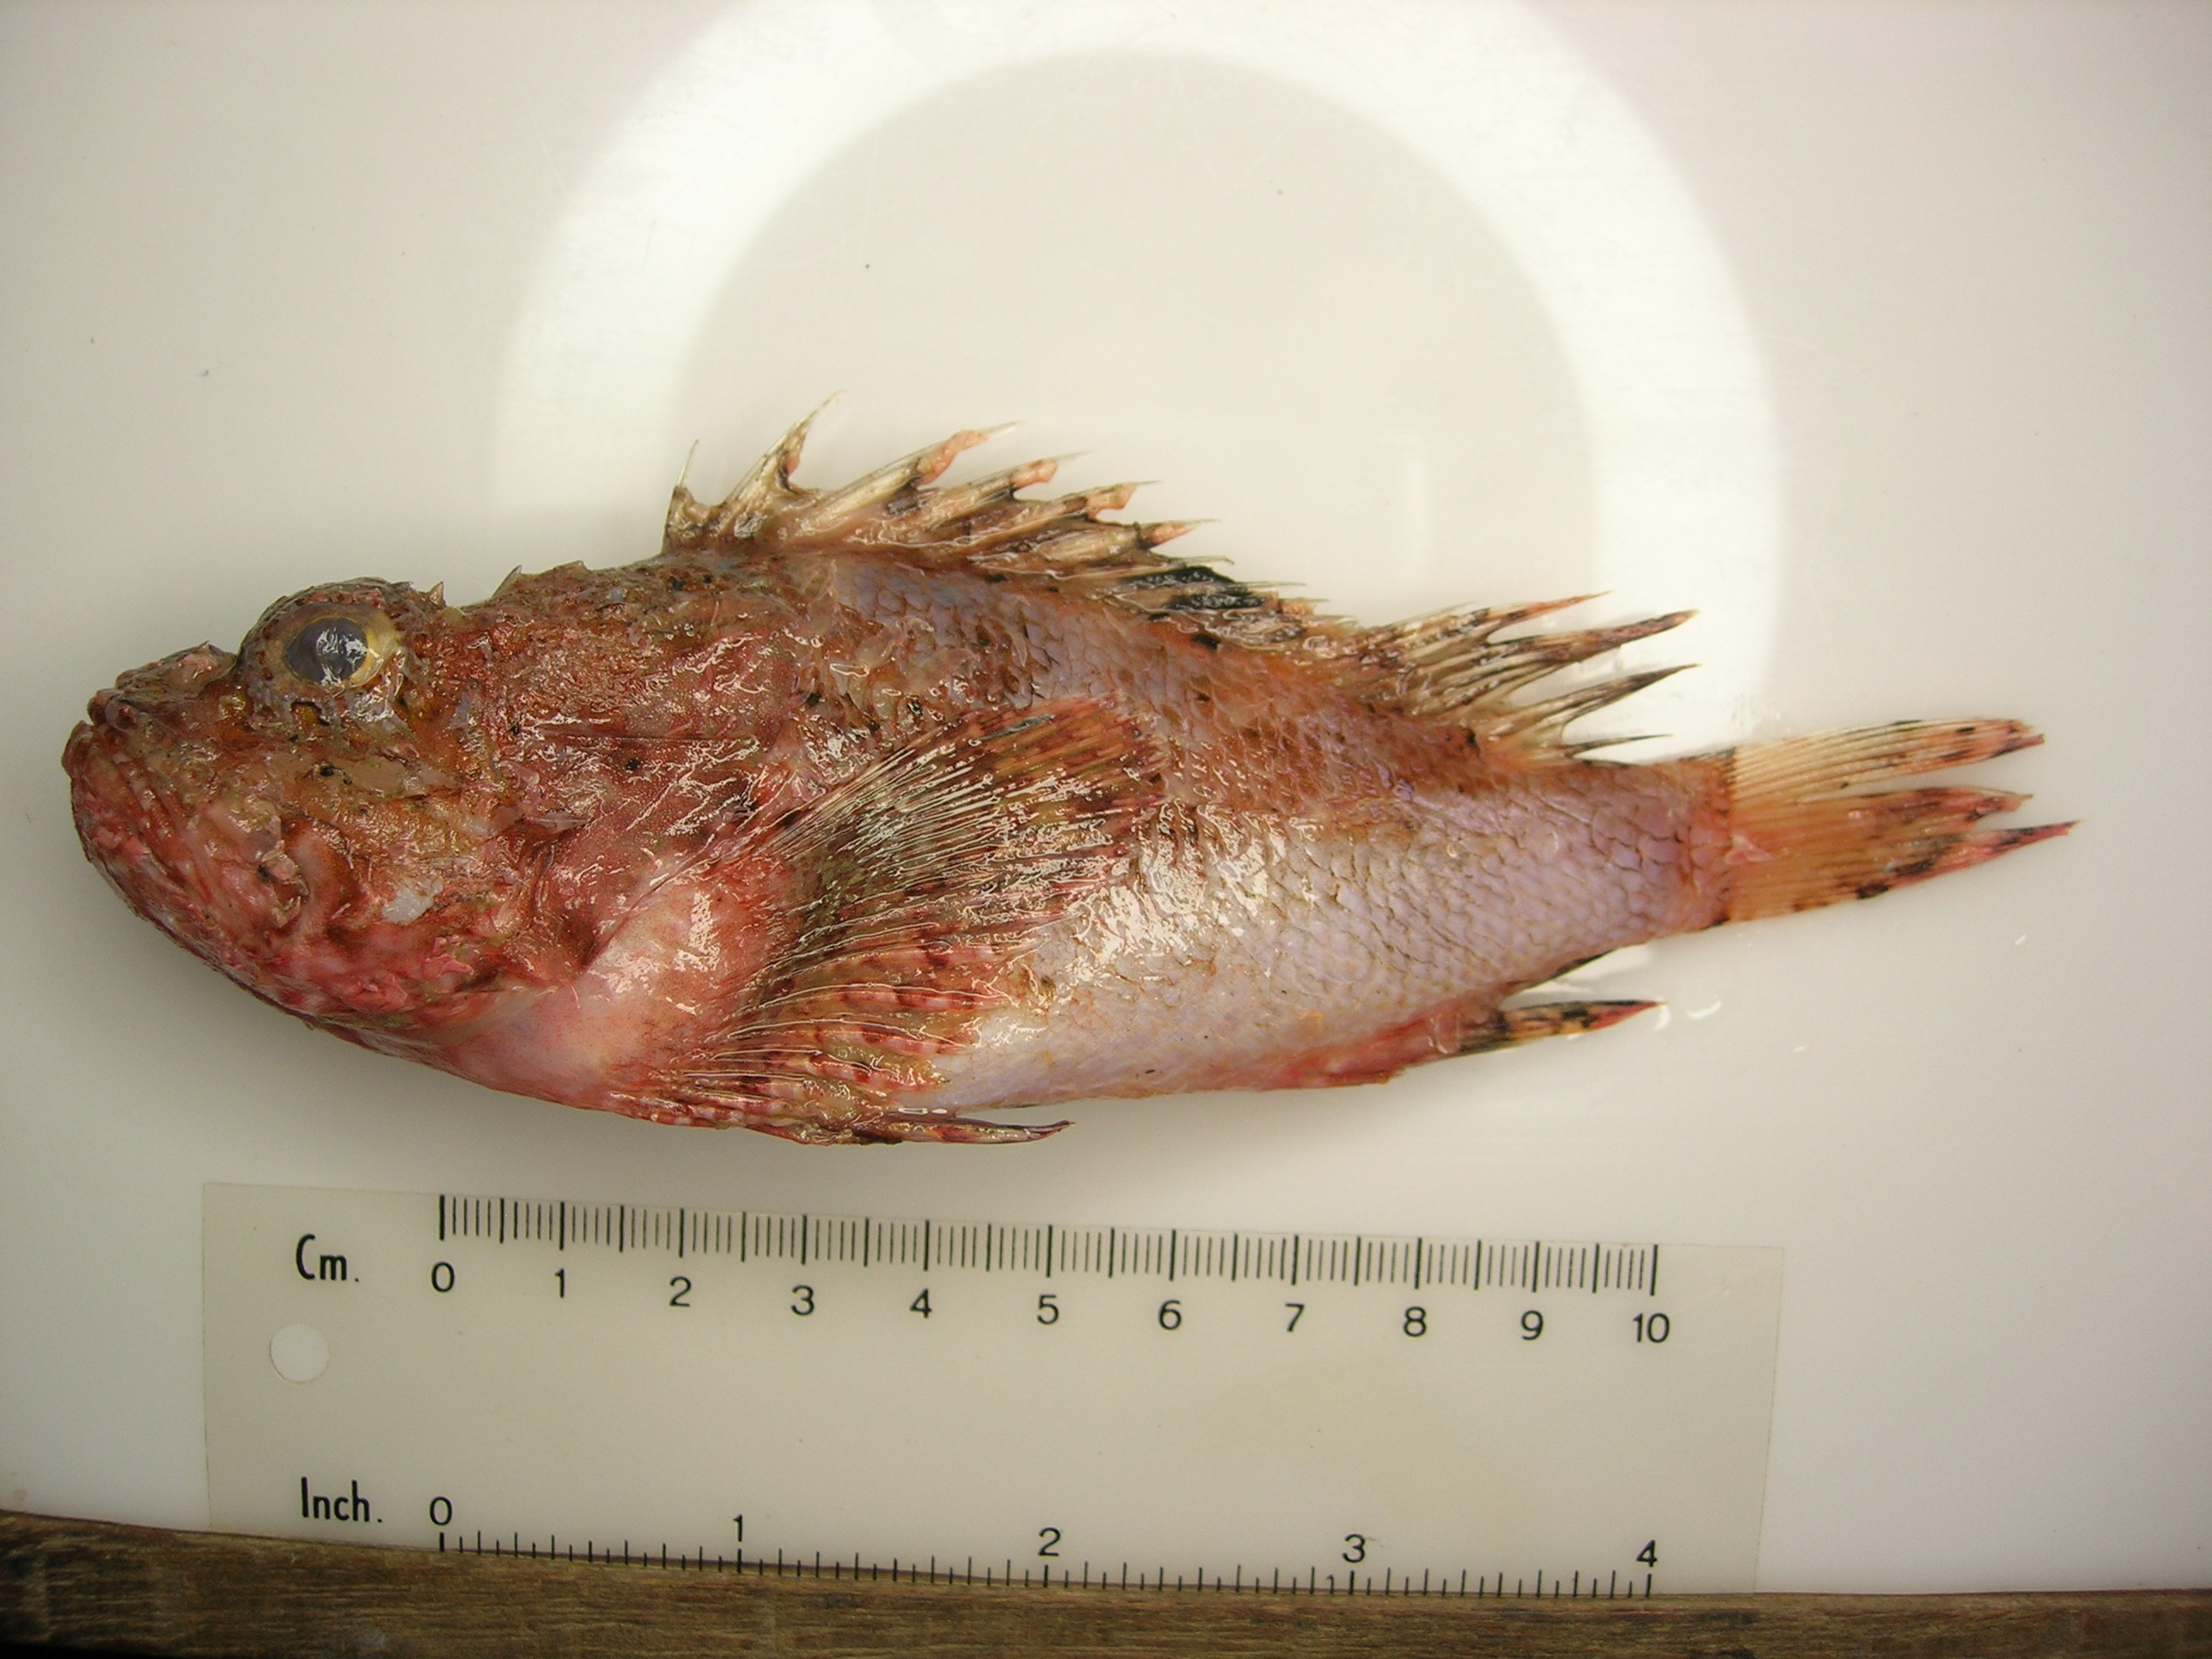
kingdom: Animalia
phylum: Chordata
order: Scorpaeniformes
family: Scorpaenidae
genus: Scorpaena
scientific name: Scorpaena scrofa
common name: Red scorpionfish
